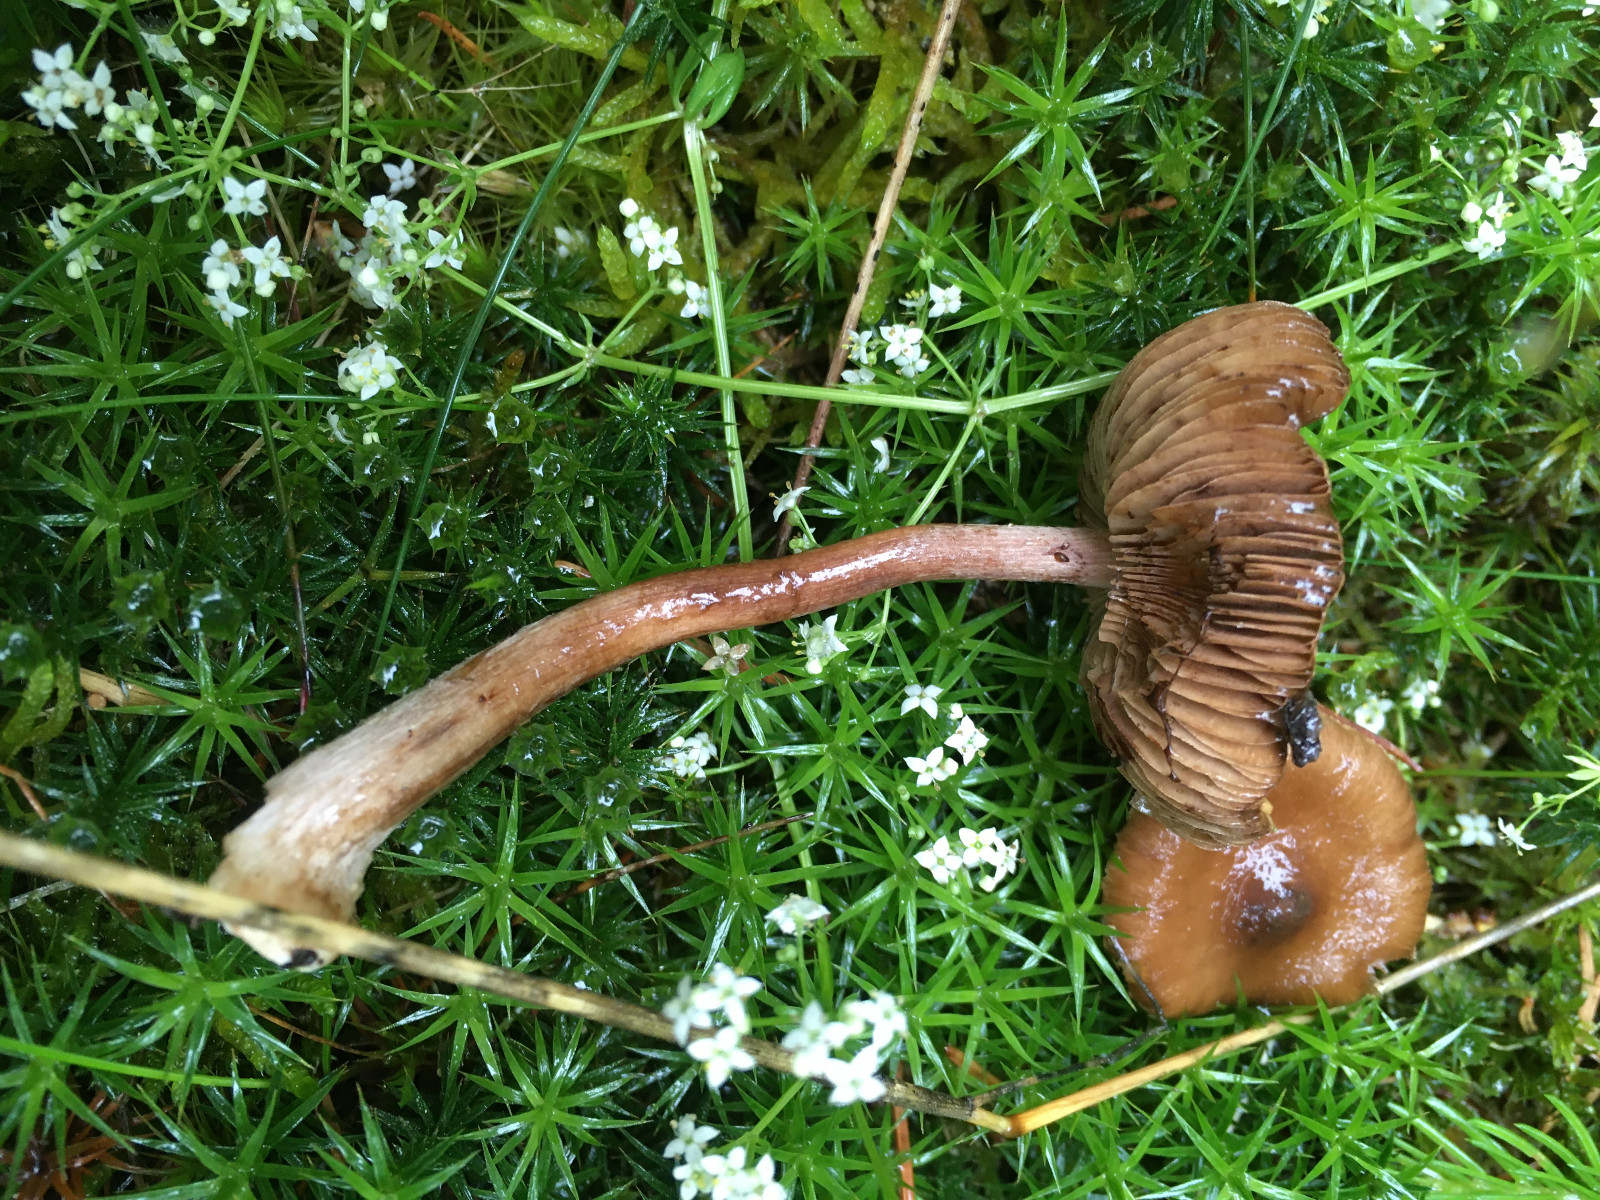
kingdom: Fungi
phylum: Basidiomycota
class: Agaricomycetes
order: Agaricales
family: Inocybaceae
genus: Inocybe
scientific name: Inocybe napipes
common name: roeknoldet trævlhat
